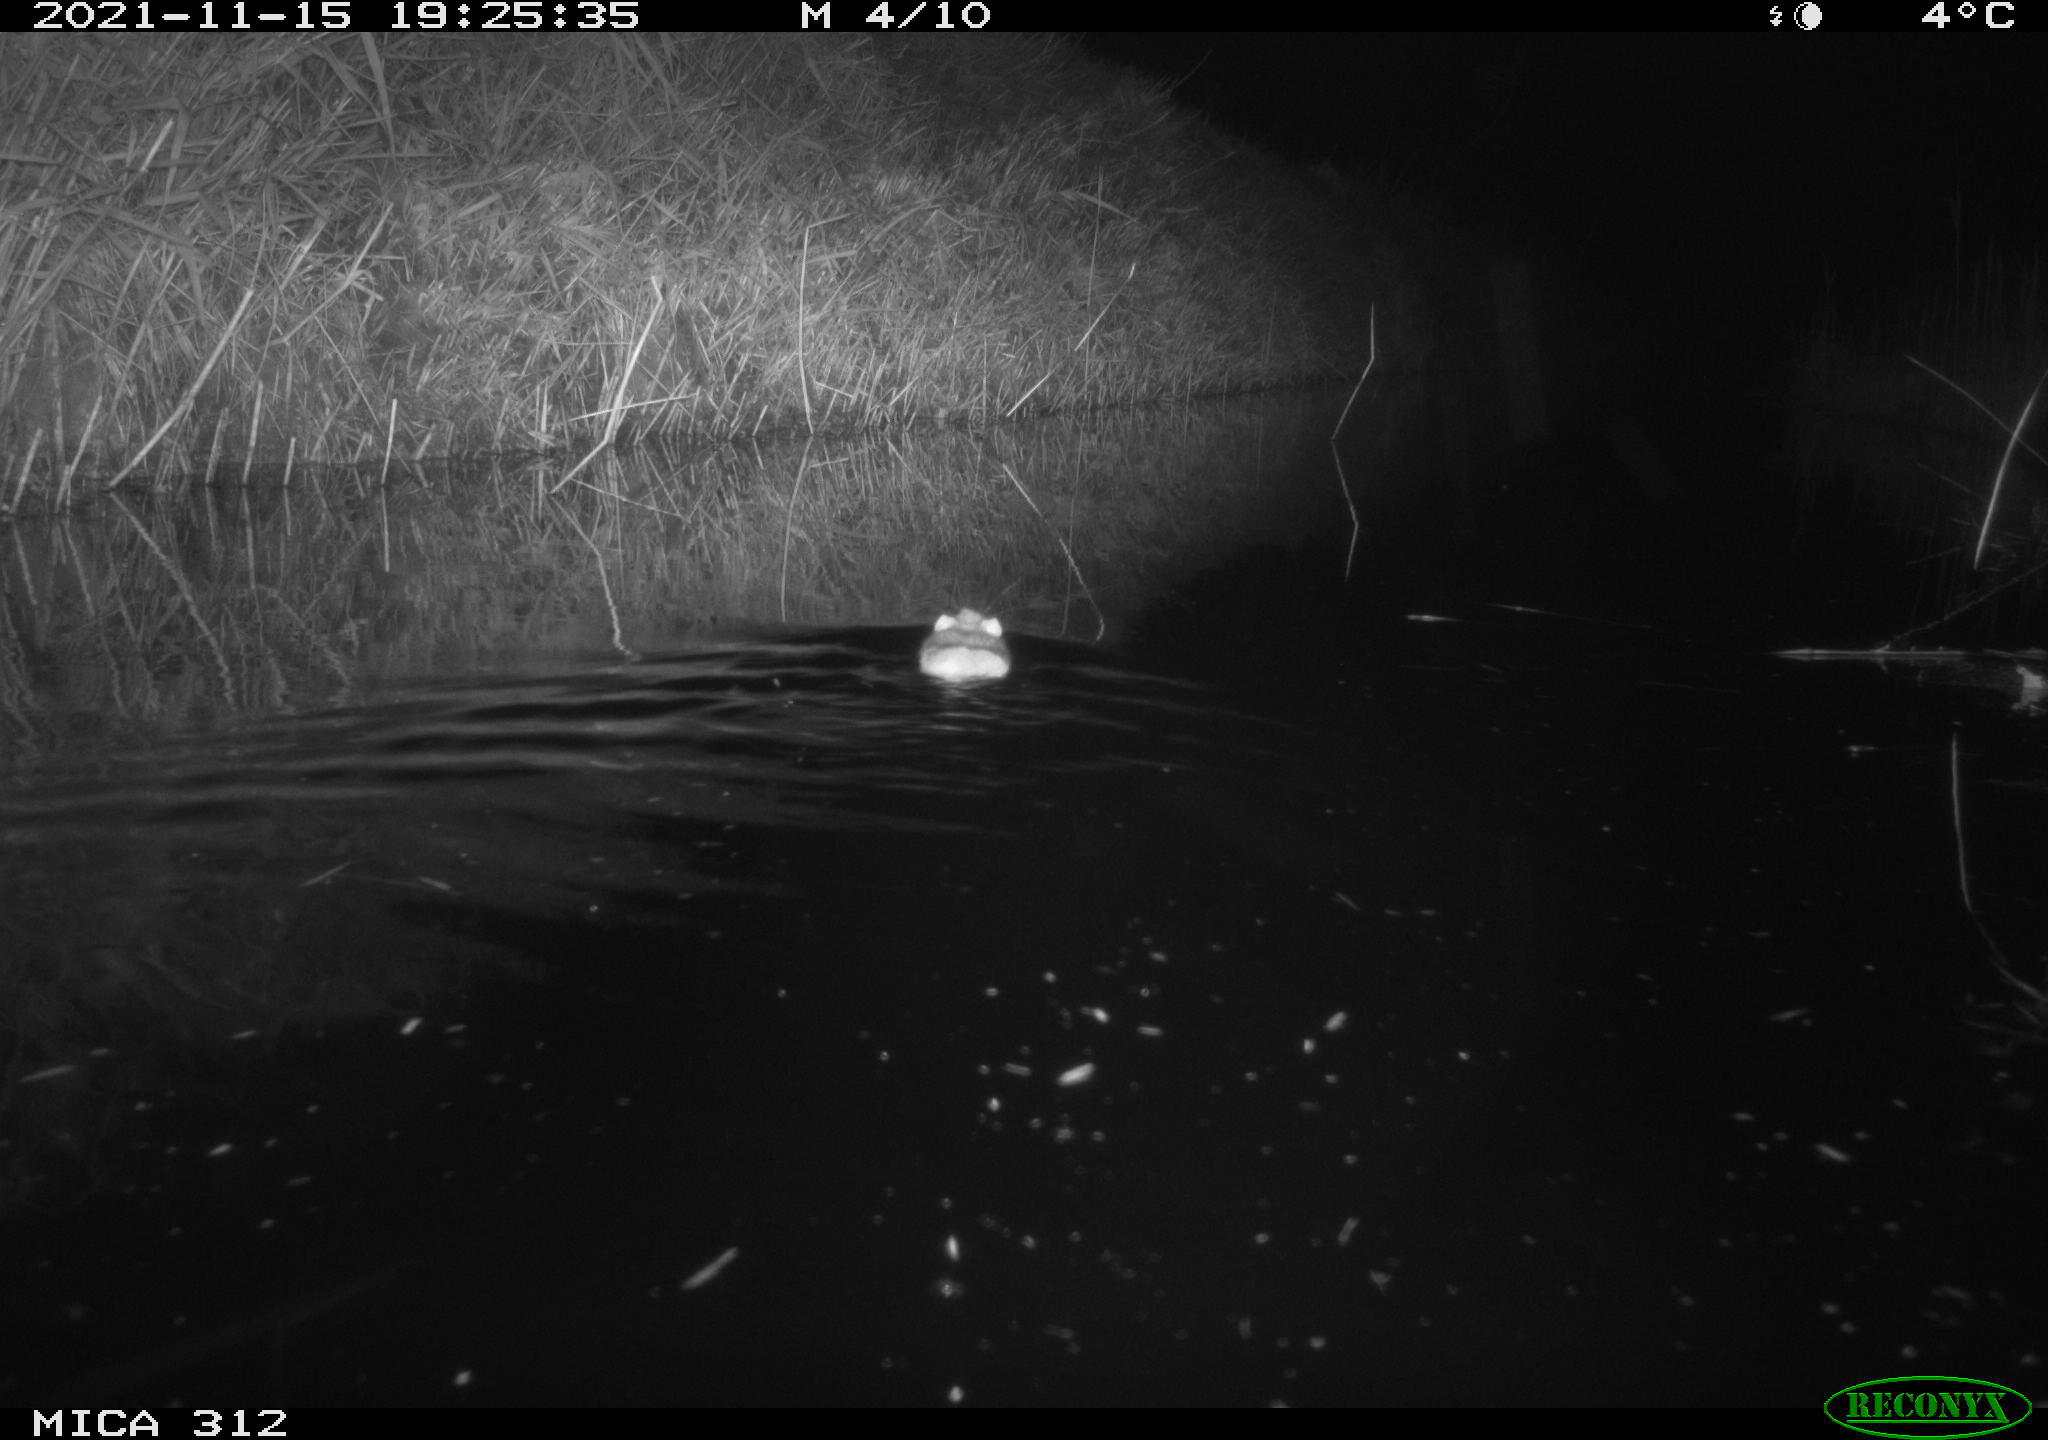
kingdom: Animalia
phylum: Chordata
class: Mammalia
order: Rodentia
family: Muridae
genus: Rattus
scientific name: Rattus norvegicus
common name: Brown rat
